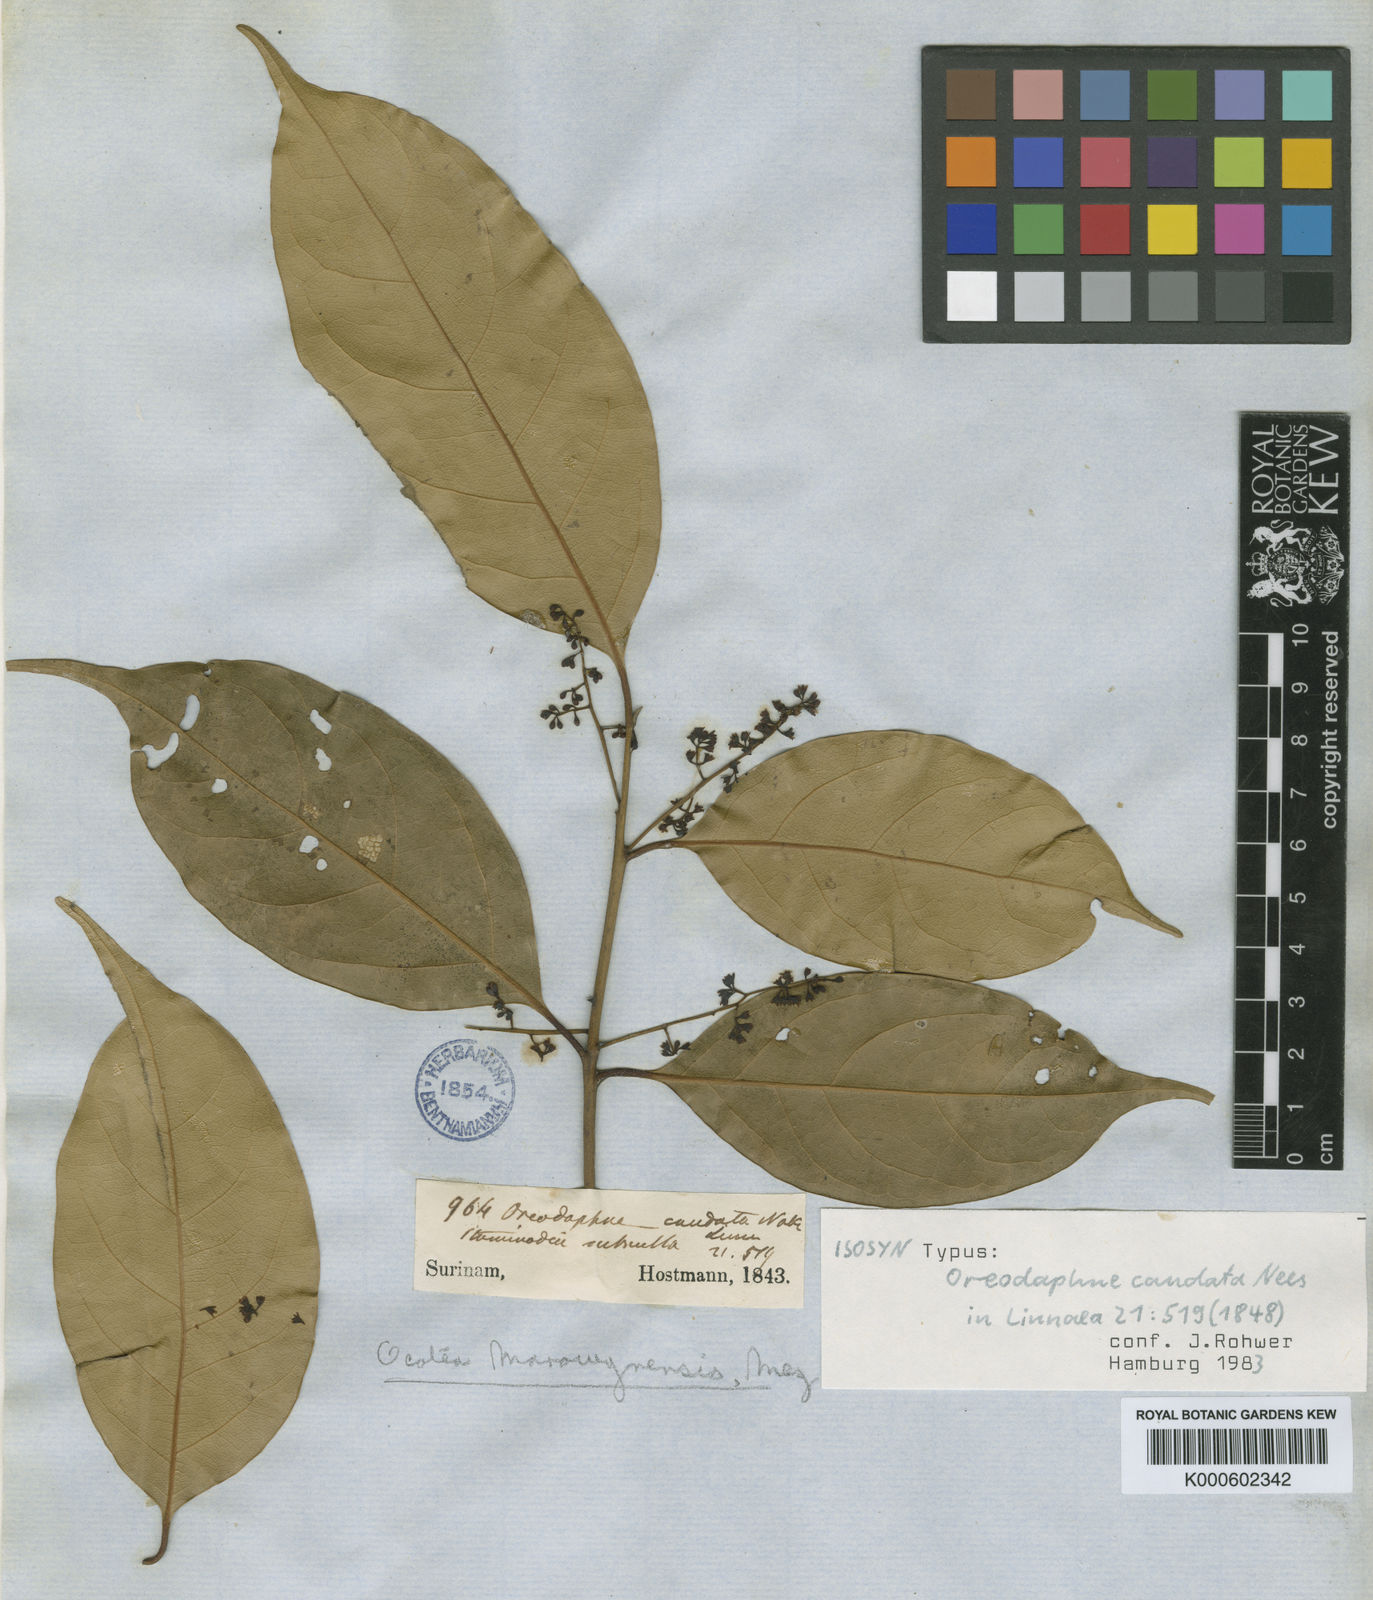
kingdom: Plantae
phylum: Tracheophyta
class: Magnoliopsida
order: Laurales
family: Lauraceae
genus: Ocotea
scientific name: Ocotea leptobotra
